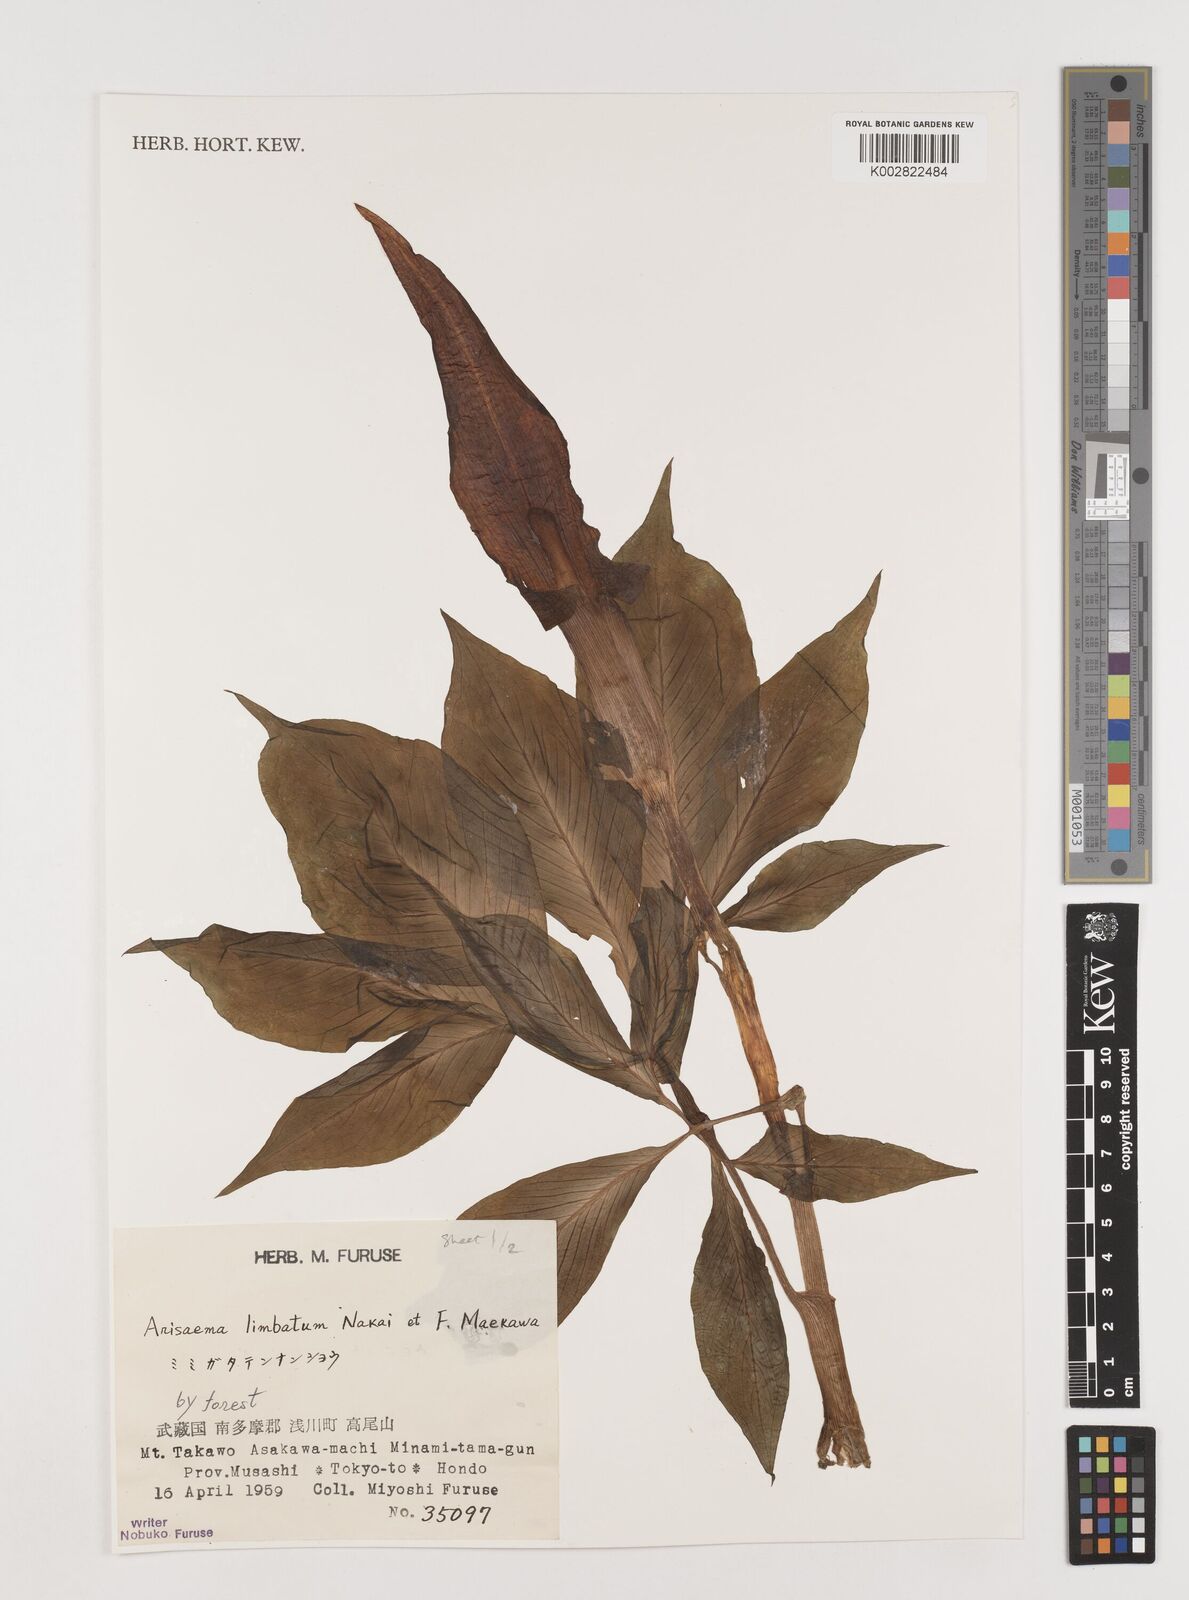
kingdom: Plantae
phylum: Tracheophyta
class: Liliopsida
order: Alismatales
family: Araceae
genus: Arisaema
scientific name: Arisaema limbatum
